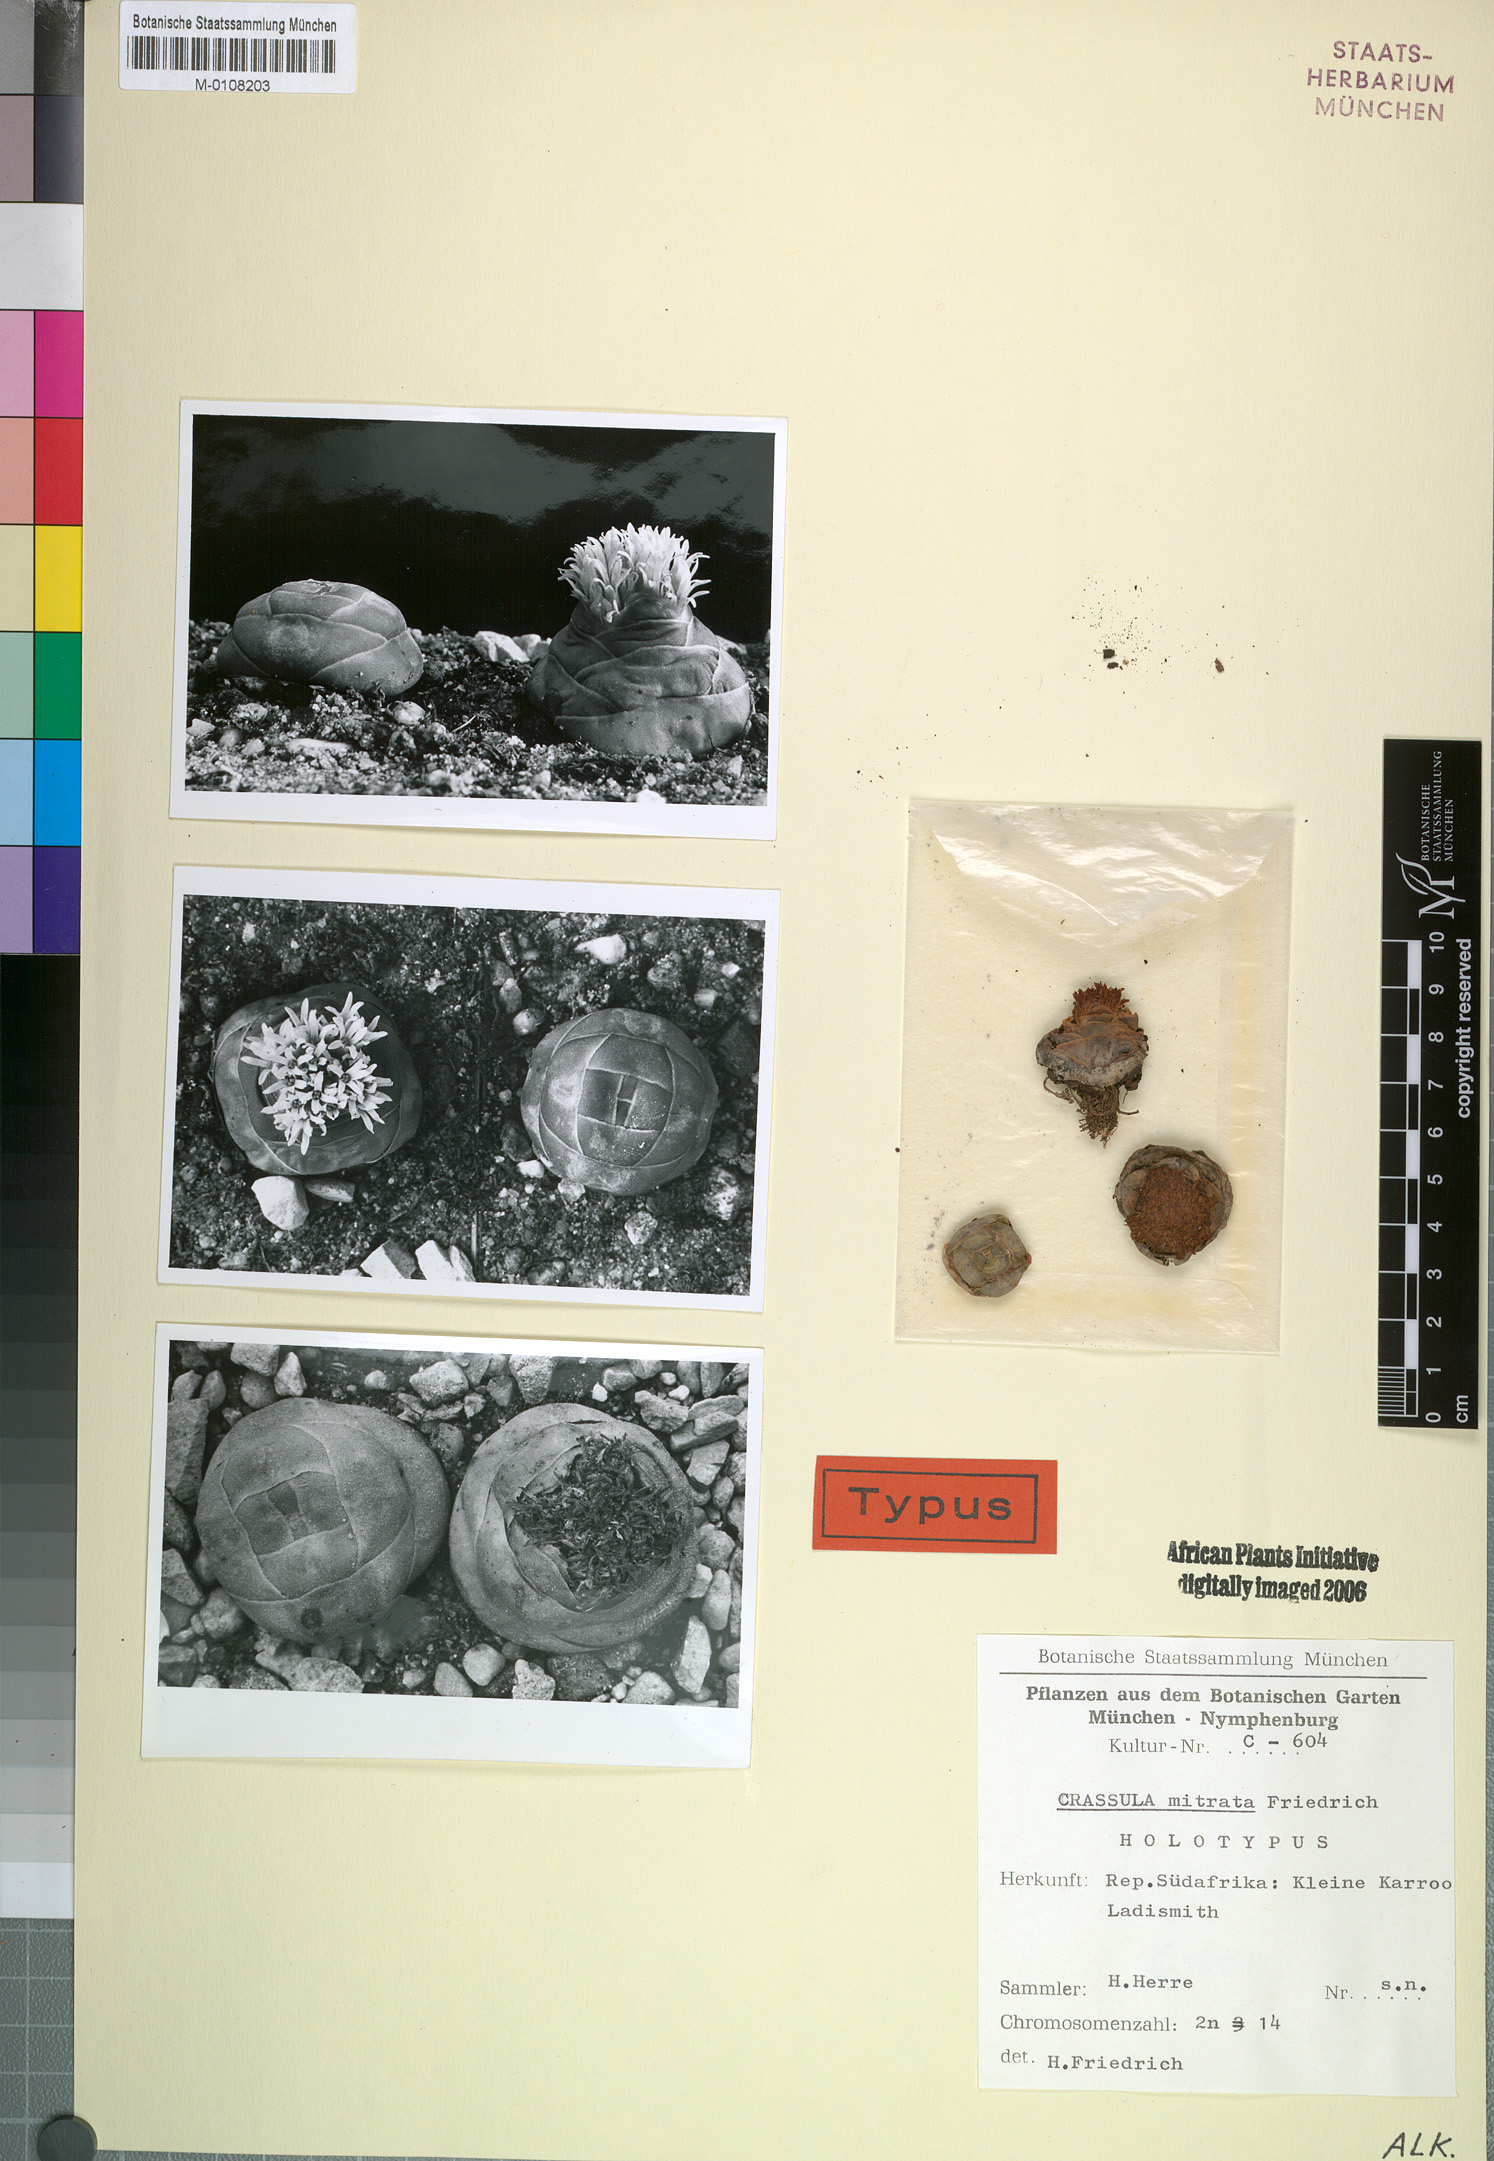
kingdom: Plantae
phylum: Tracheophyta
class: Magnoliopsida
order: Saxifragales
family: Crassulaceae
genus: Crassula
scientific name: Crassula columnaris
